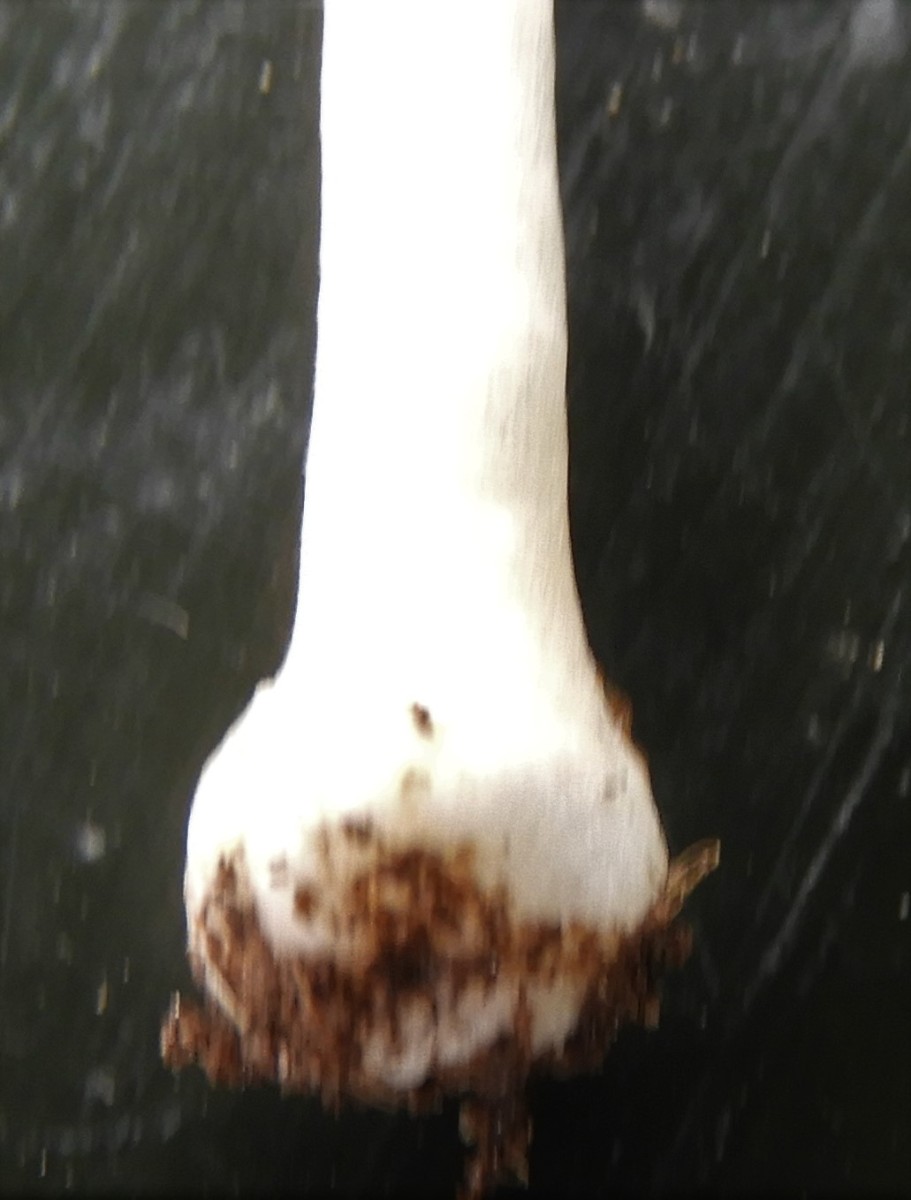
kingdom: Fungi
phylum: Basidiomycota
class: Agaricomycetes
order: Agaricales
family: Bolbitiaceae
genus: Conocybe
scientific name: Conocybe
